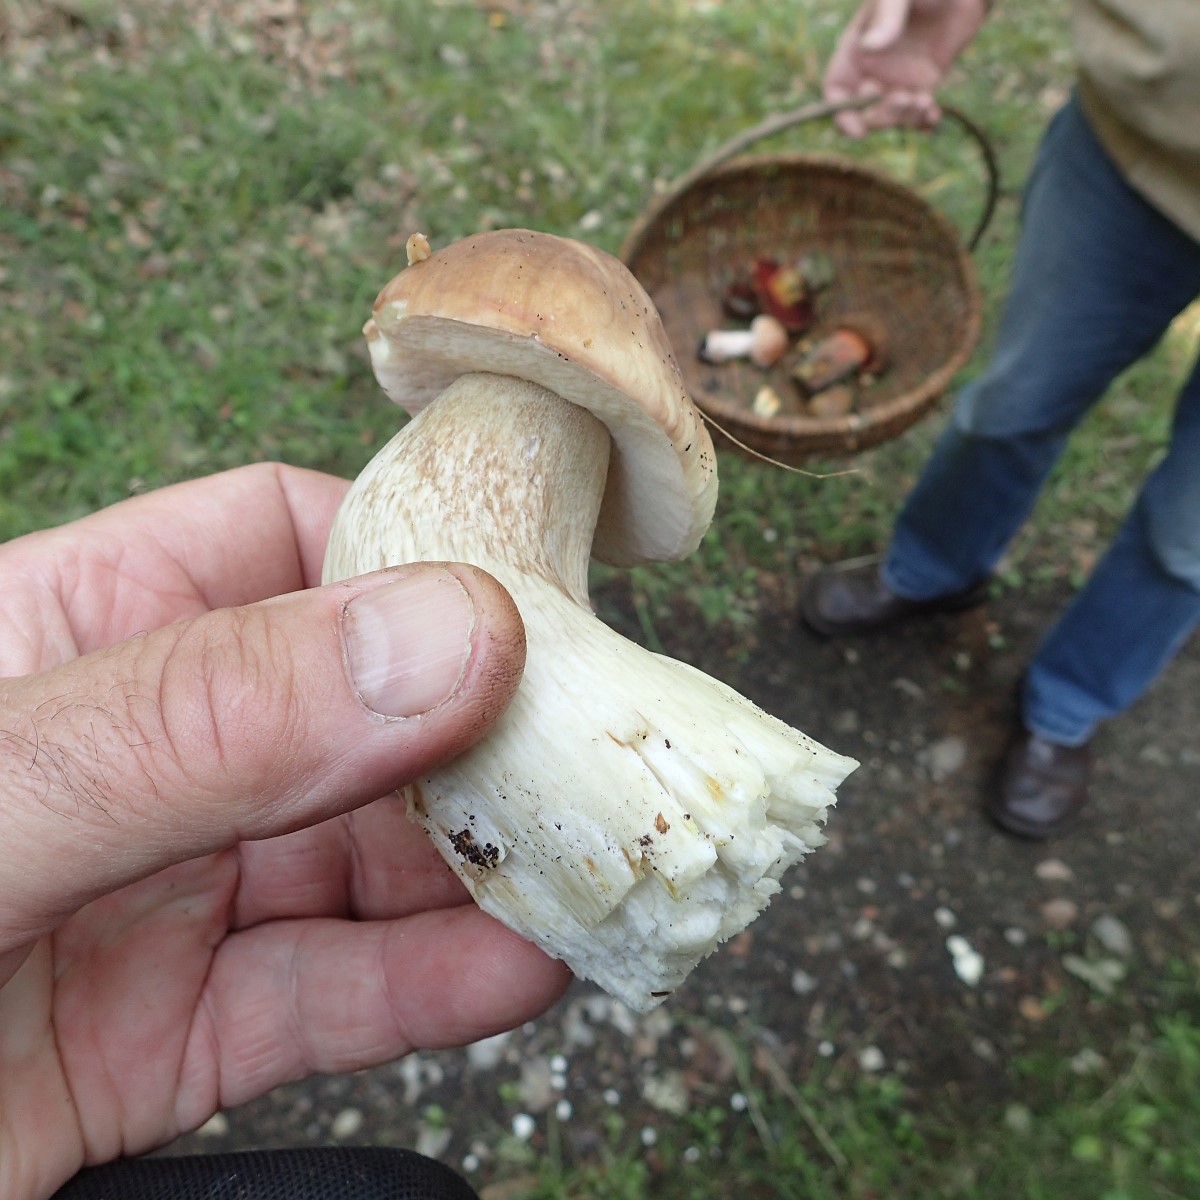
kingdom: Fungi
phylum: Basidiomycota
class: Agaricomycetes
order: Boletales
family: Boletaceae
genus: Boletus
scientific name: Boletus reticulatus
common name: sommer-rørhat
